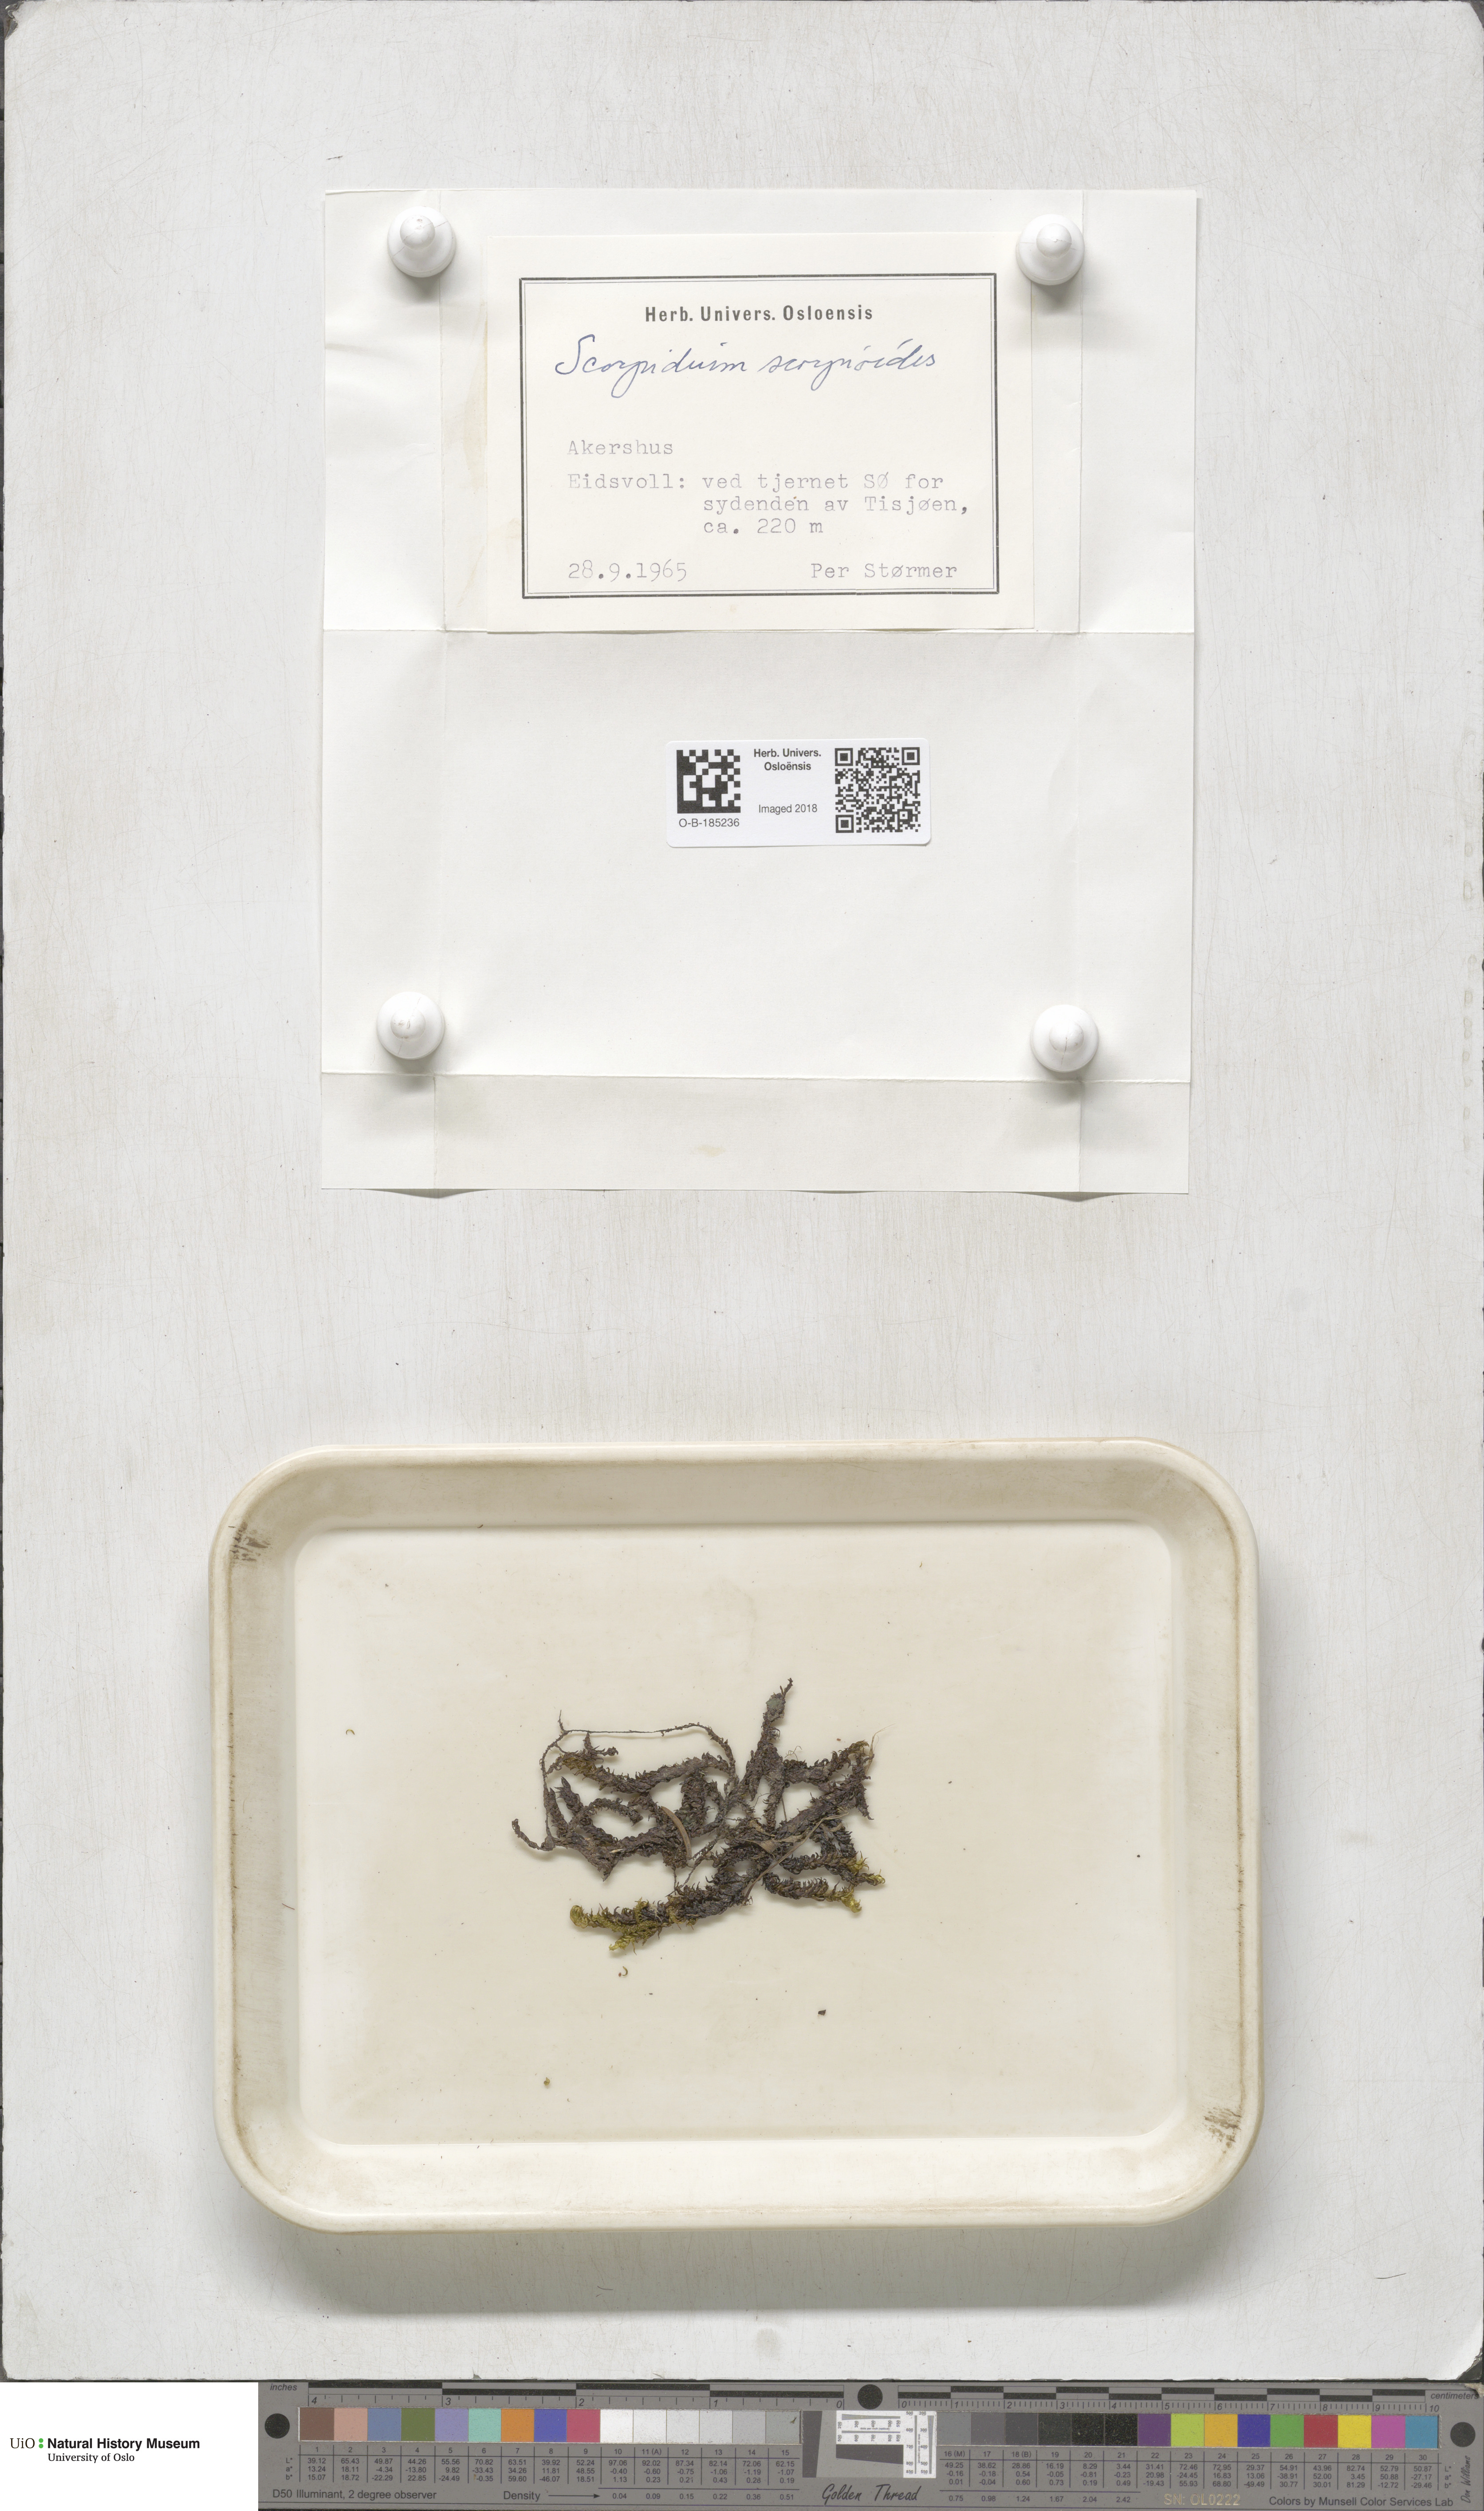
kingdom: Plantae
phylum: Bryophyta
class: Bryopsida
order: Hypnales
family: Scorpidiaceae
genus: Scorpidium
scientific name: Scorpidium scorpioides
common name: Hooked scorpion moss
